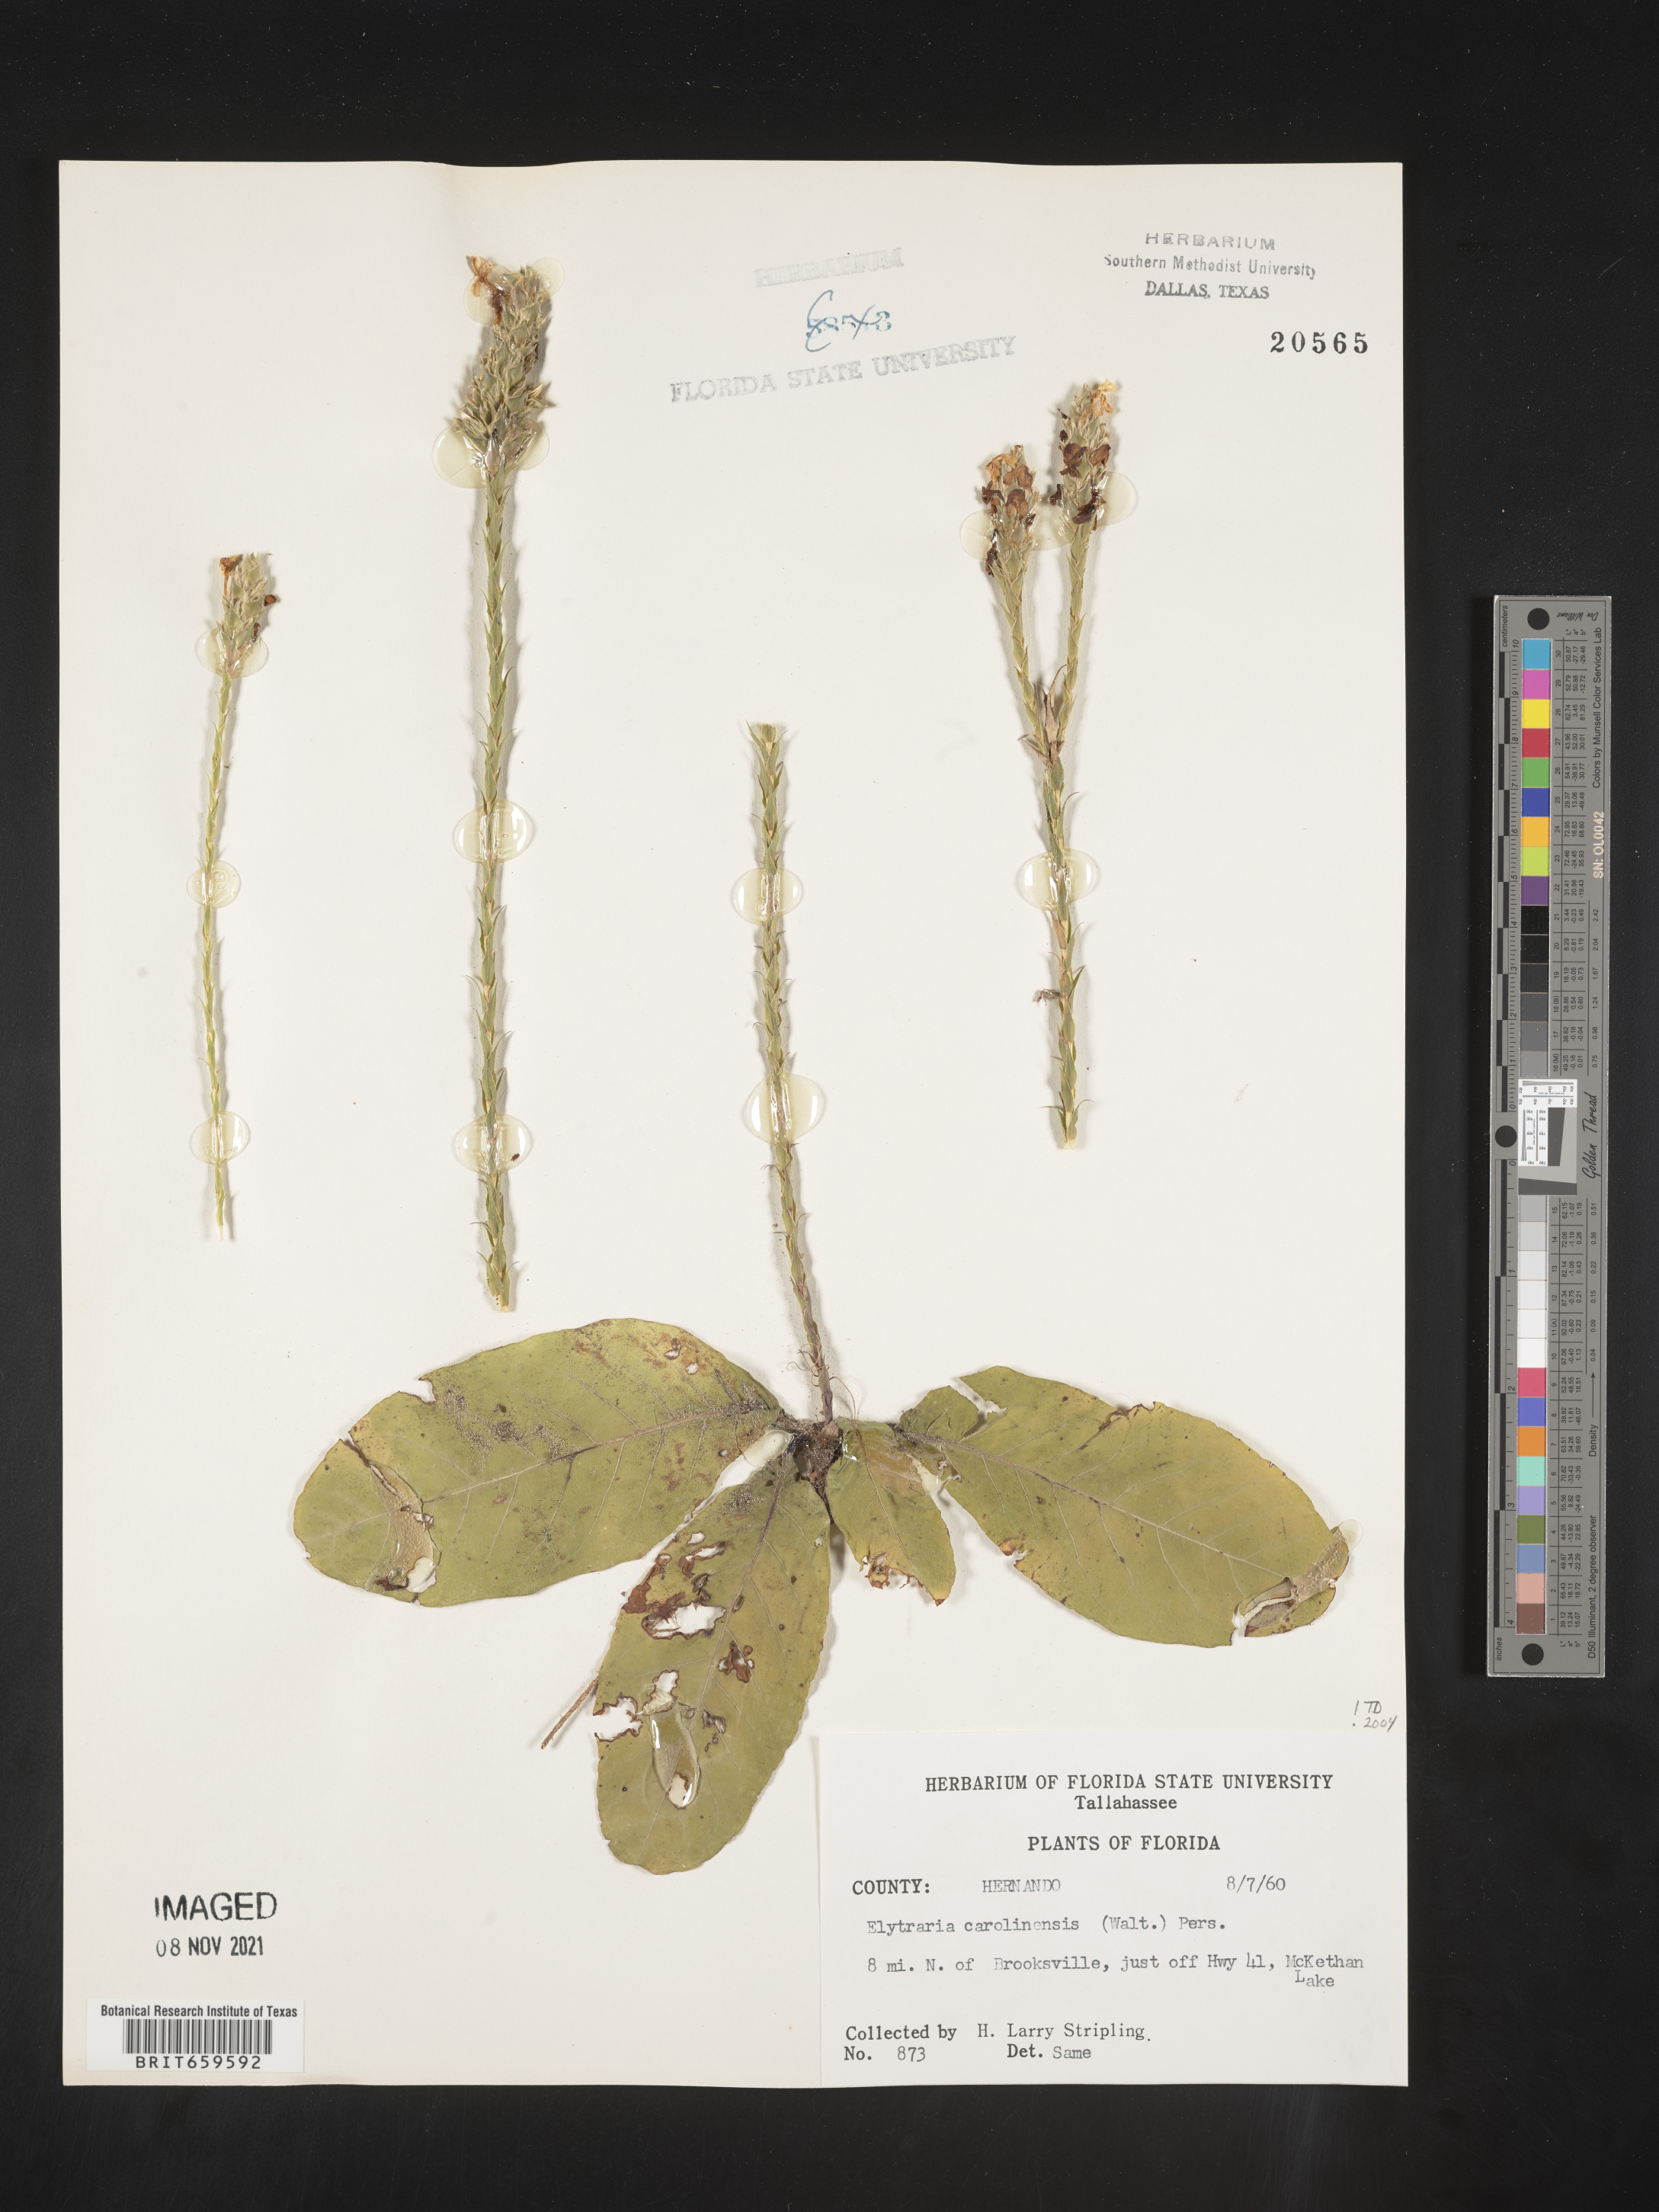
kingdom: Plantae
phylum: Tracheophyta
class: Magnoliopsida
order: Lamiales
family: Acanthaceae
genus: Elytraria
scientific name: Elytraria imbricata
